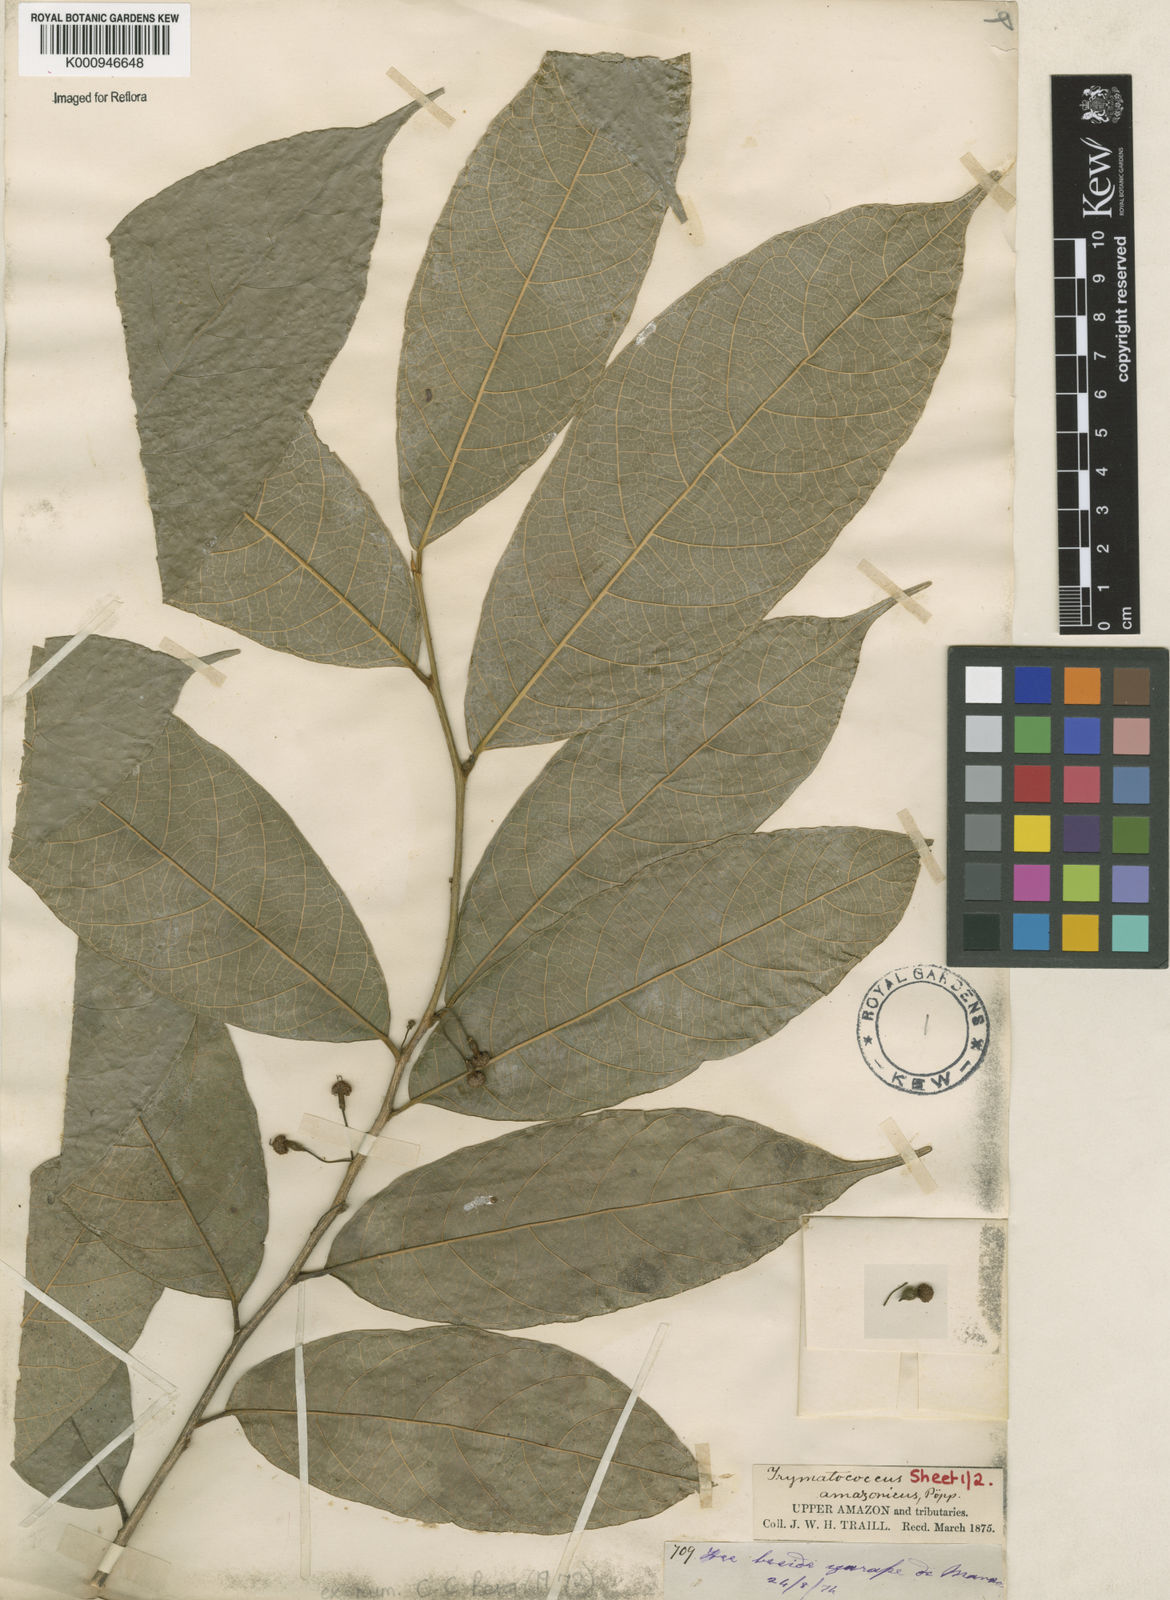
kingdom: Plantae
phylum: Tracheophyta
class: Magnoliopsida
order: Rosales
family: Moraceae
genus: Brosimum
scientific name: Brosimum amazonicum
